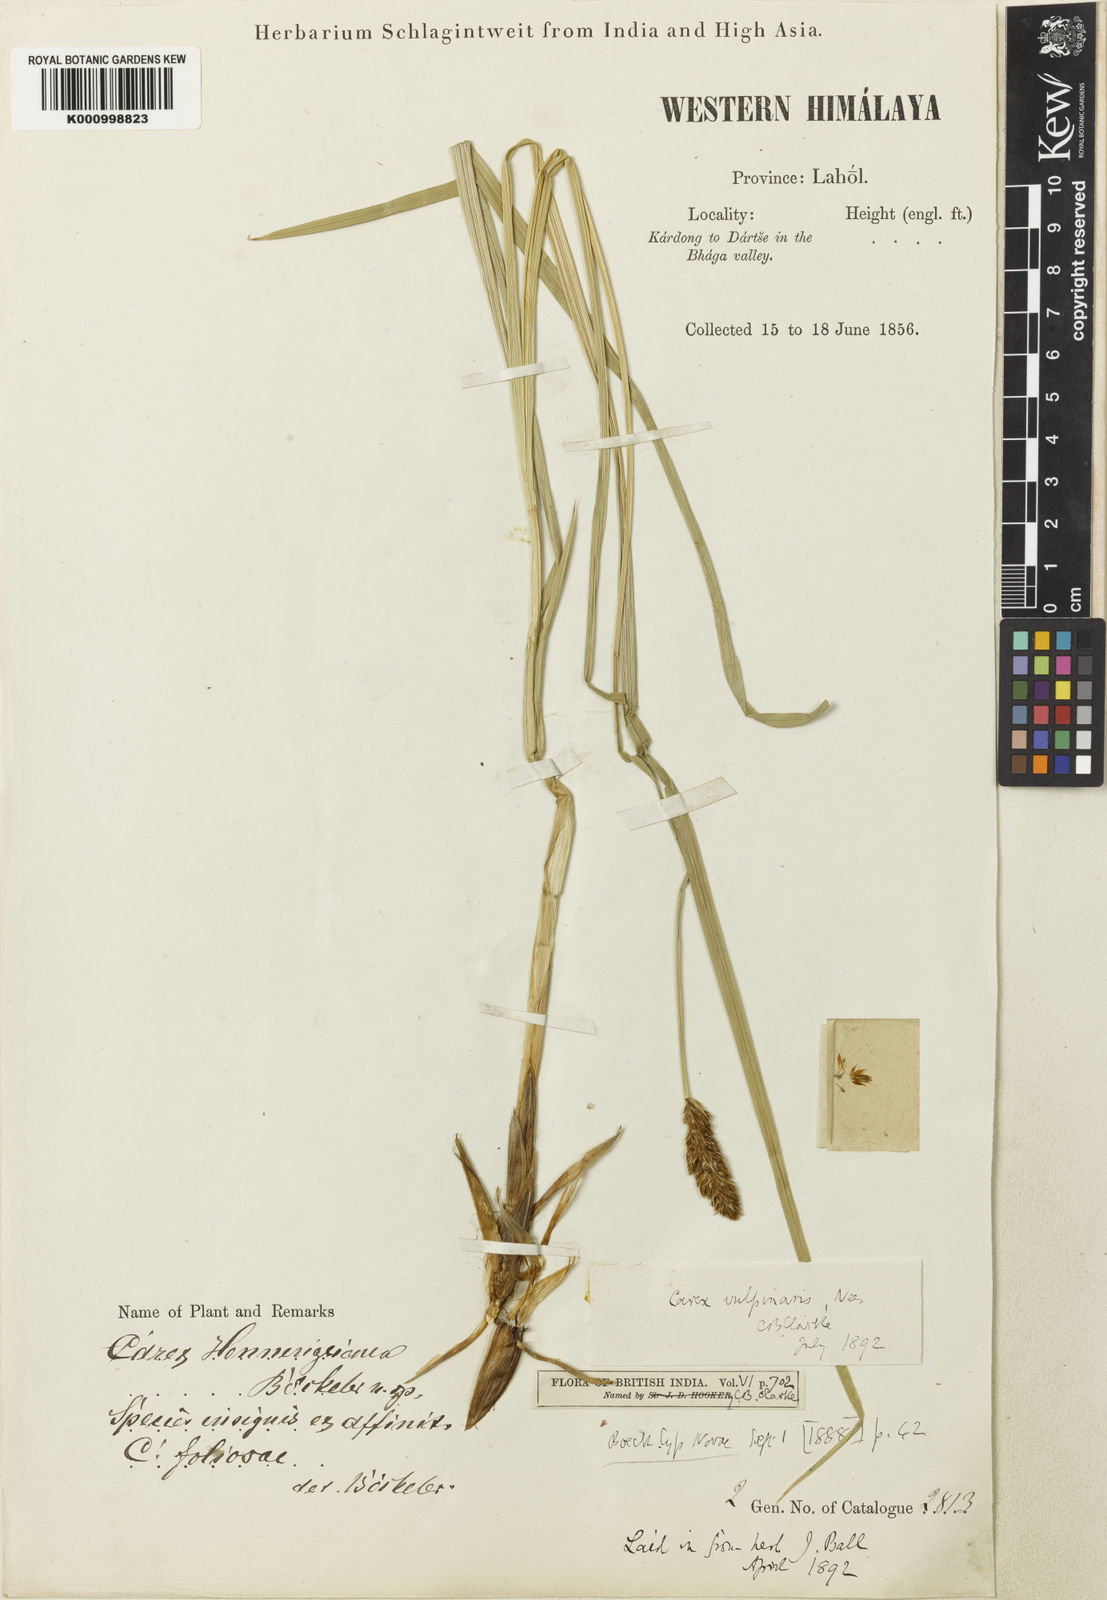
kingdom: Plantae
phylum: Tracheophyta
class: Liliopsida
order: Poales
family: Cyperaceae
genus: Carex
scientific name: Carex vulpinaris
